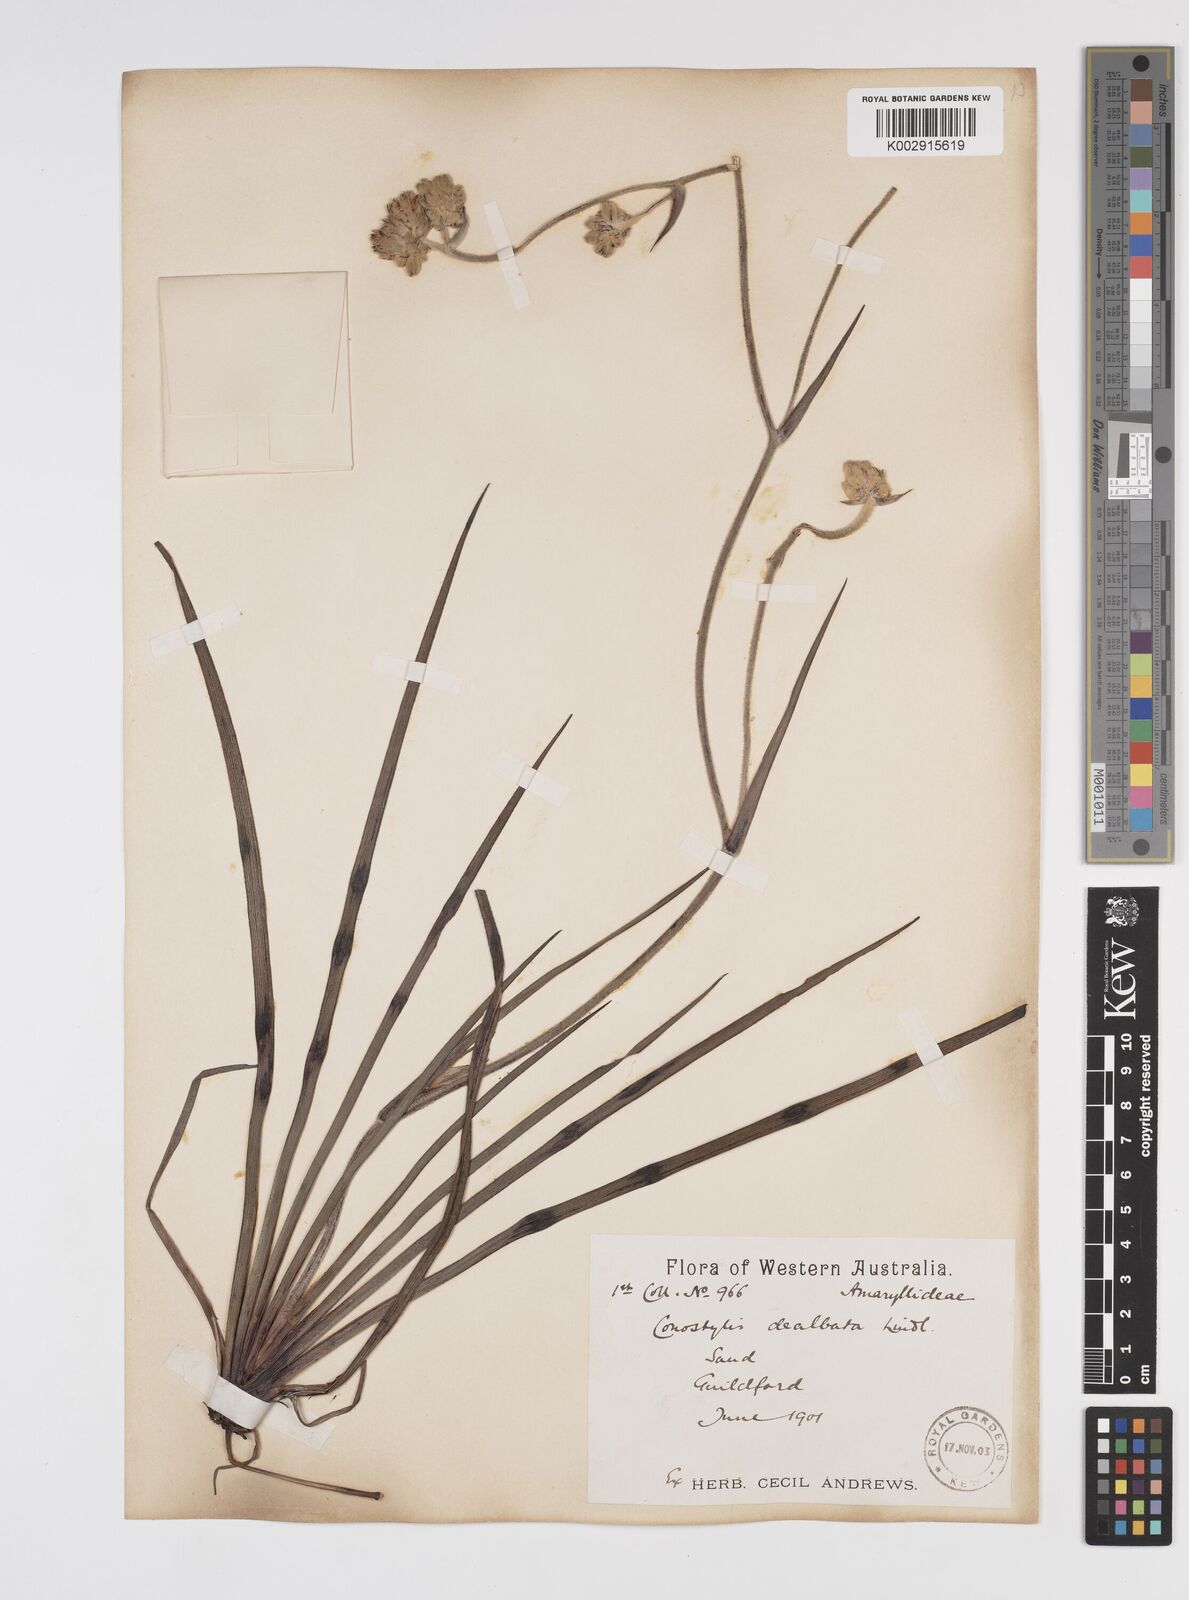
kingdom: Plantae
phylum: Tracheophyta
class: Liliopsida
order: Commelinales
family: Haemodoraceae
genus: Conostylis
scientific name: Conostylis candicans
